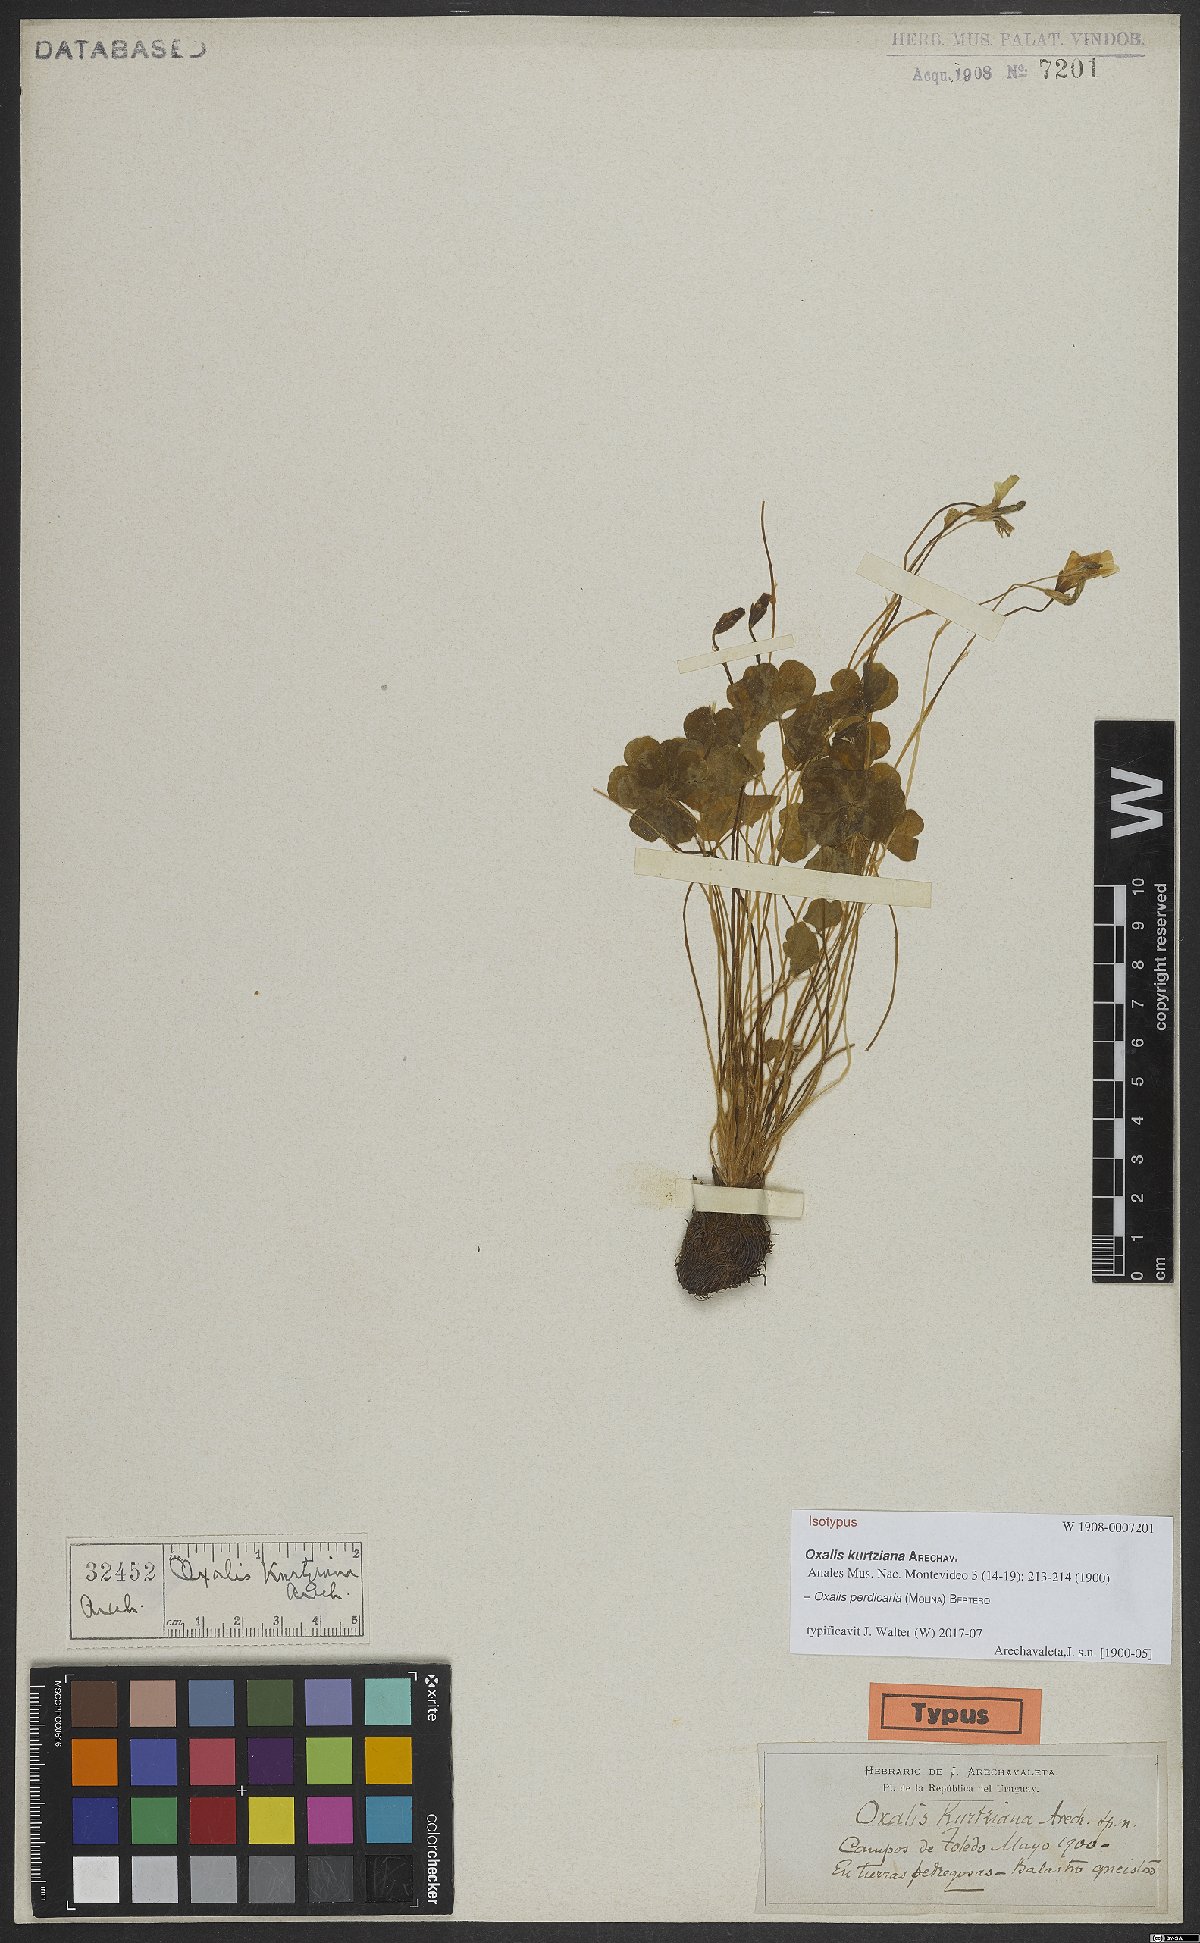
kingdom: Plantae
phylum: Tracheophyta
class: Magnoliopsida
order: Oxalidales
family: Oxalidaceae
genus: Oxalis
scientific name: Oxalis perdicaria
